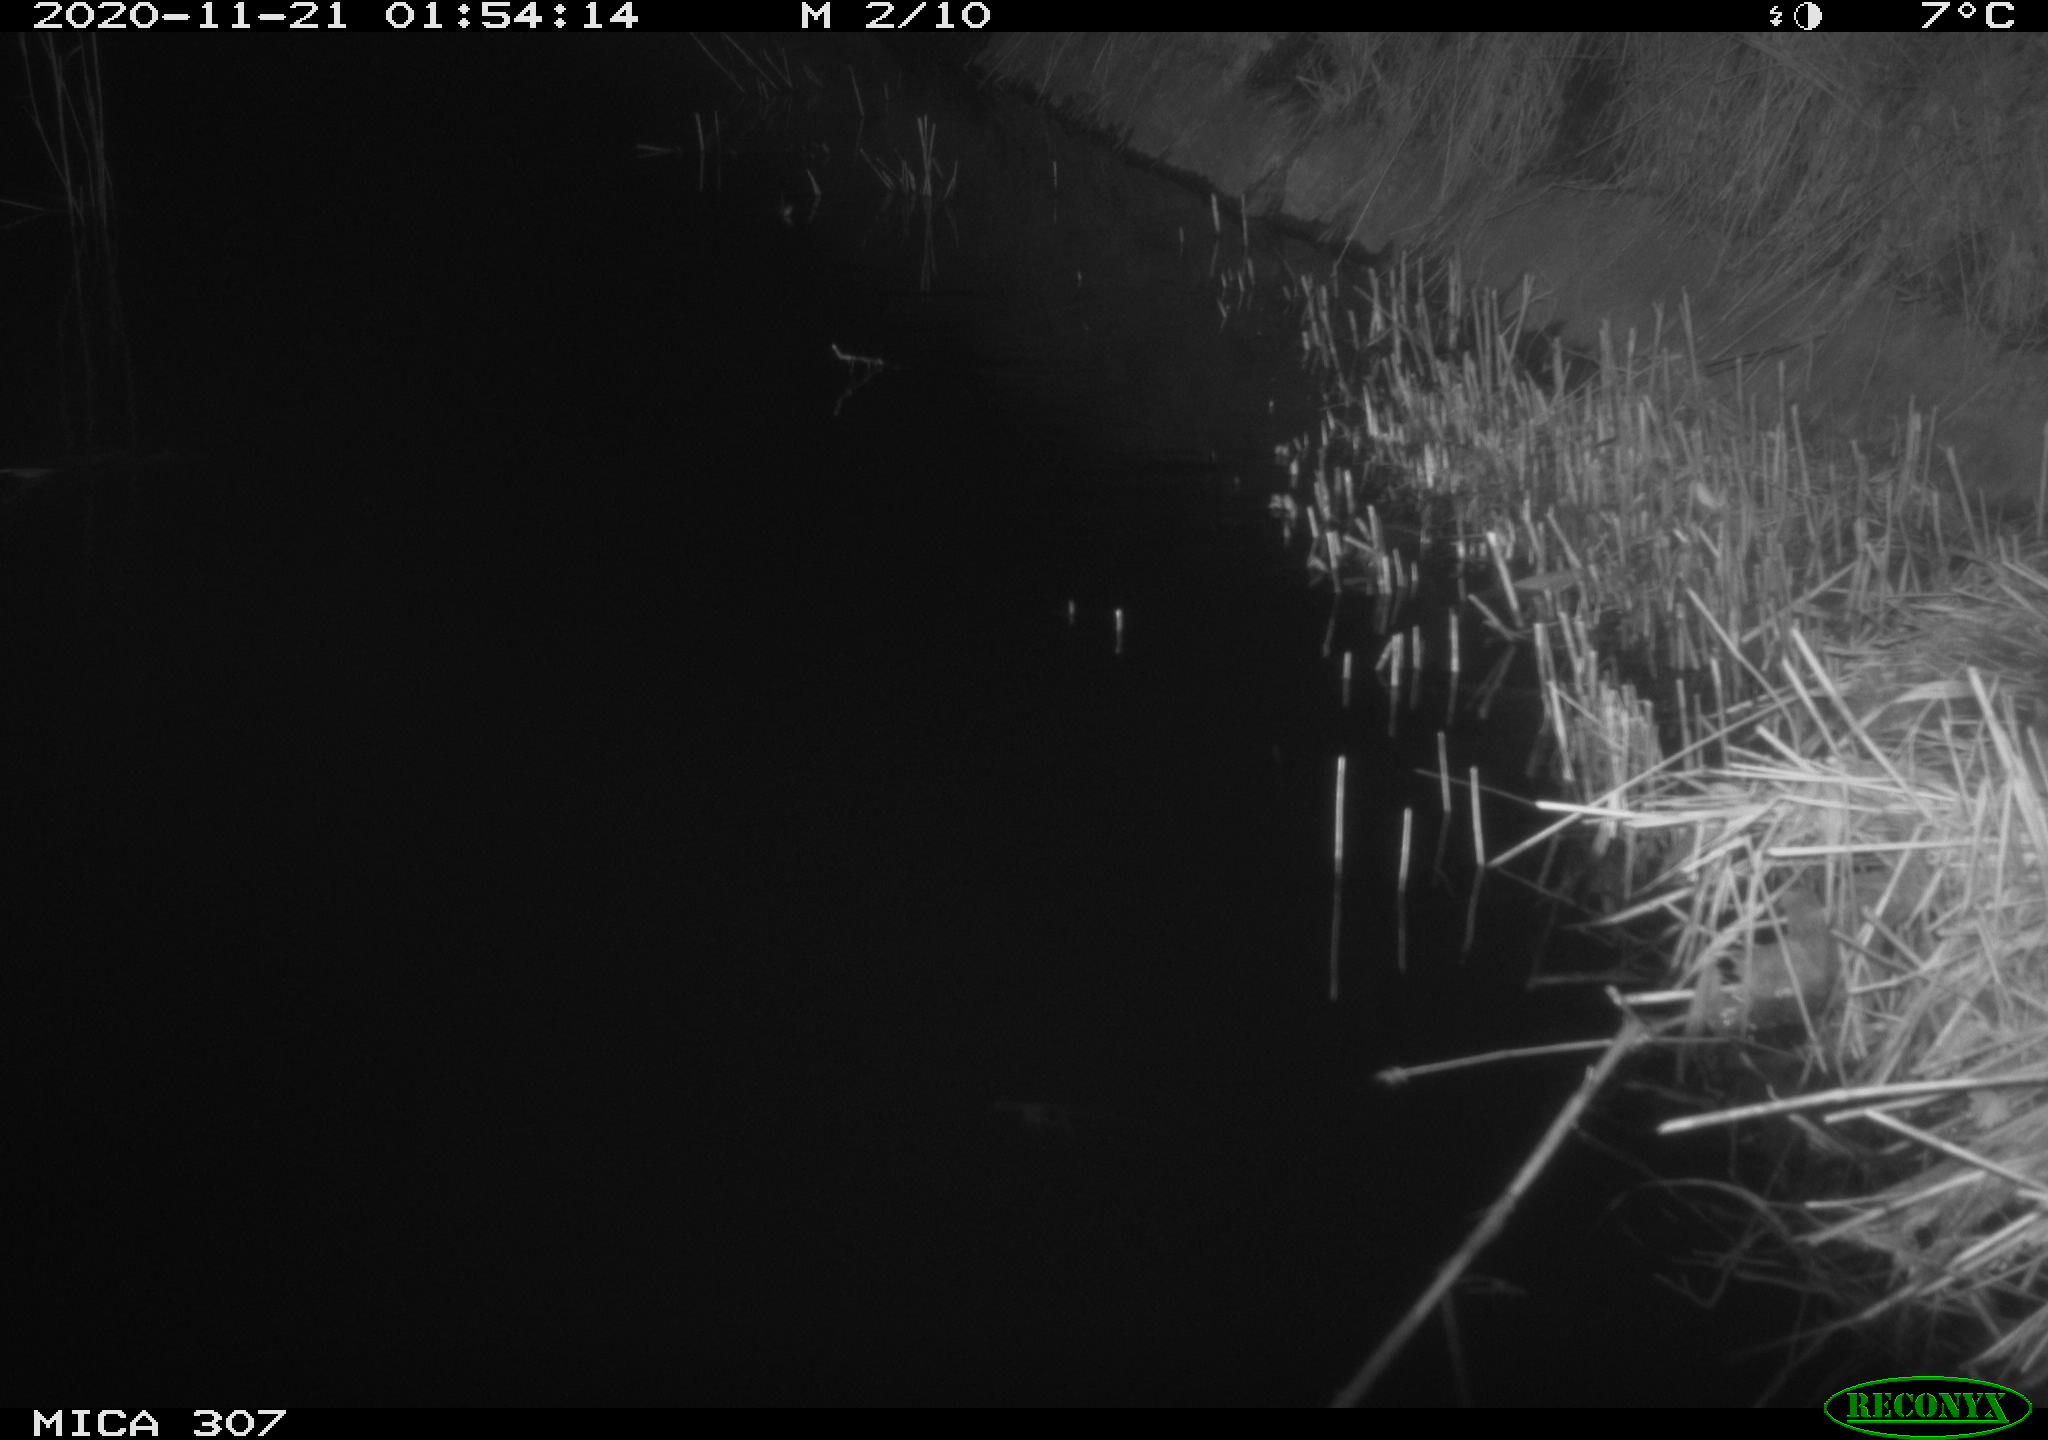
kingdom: Animalia
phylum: Chordata
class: Mammalia
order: Rodentia
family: Muridae
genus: Rattus
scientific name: Rattus norvegicus
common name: Brown rat
